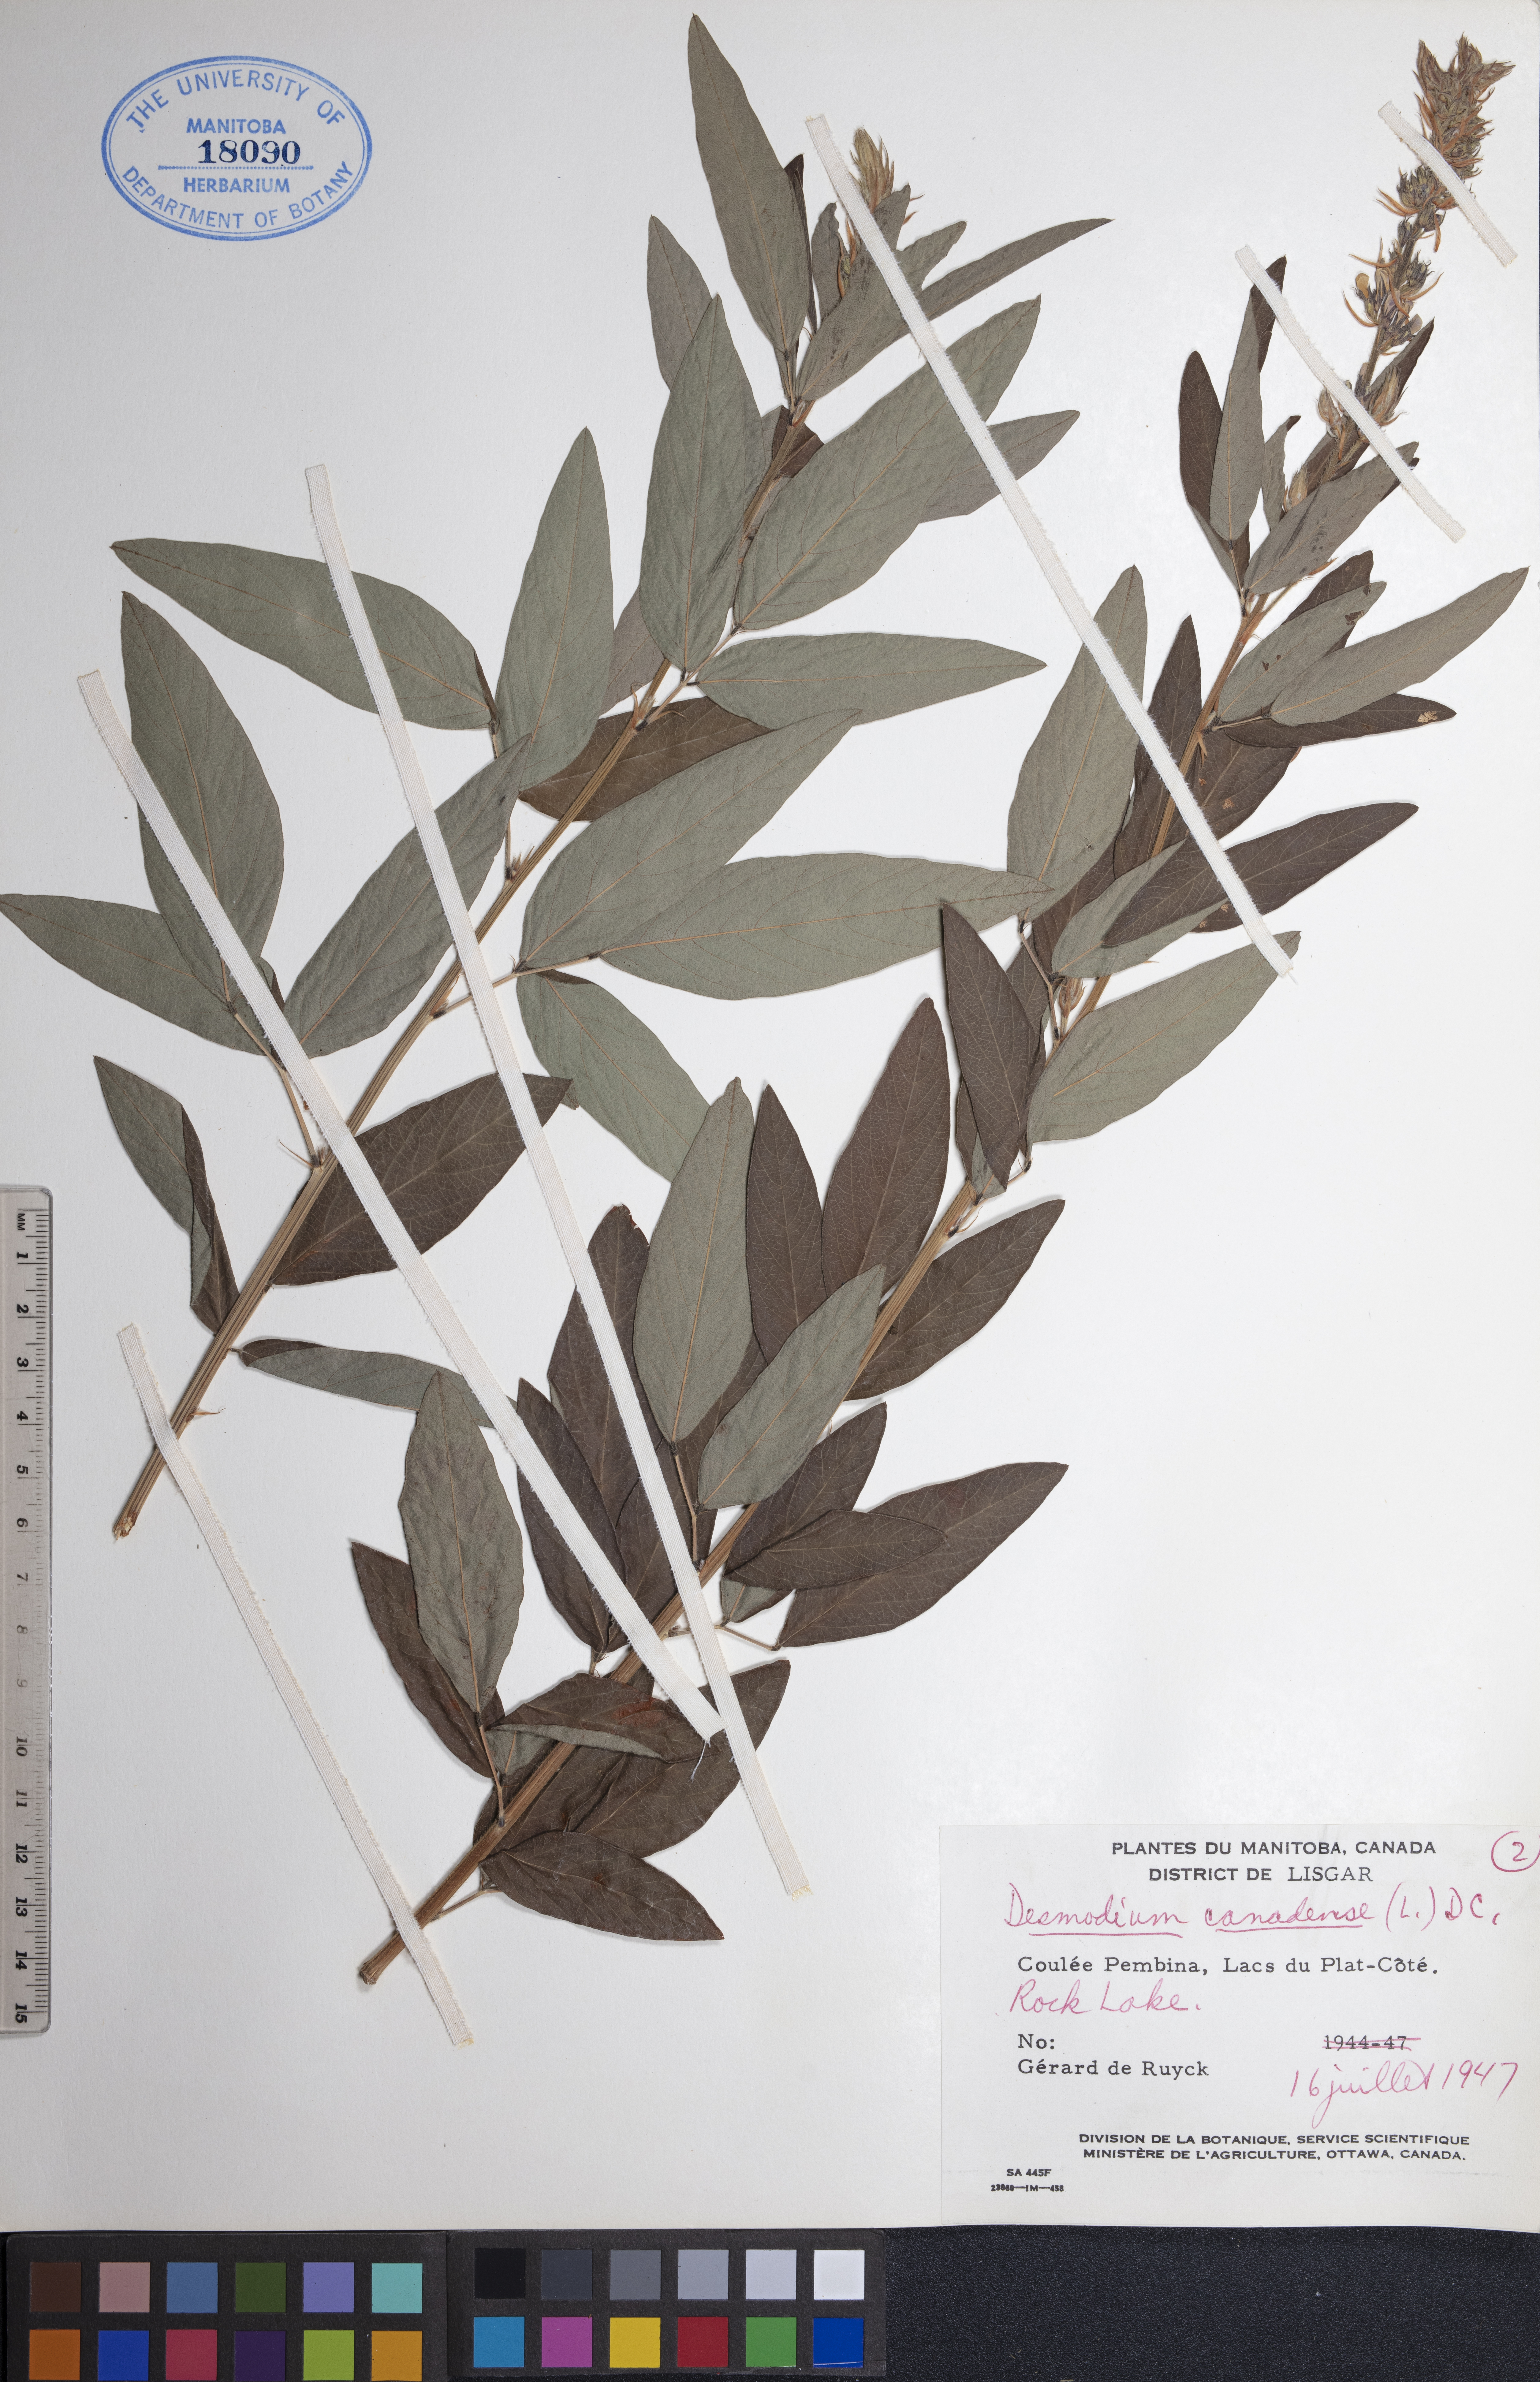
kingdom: Plantae
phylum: Tracheophyta
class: Magnoliopsida
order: Fabales
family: Fabaceae
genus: Desmodium
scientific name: Desmodium canadense
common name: Canada tick-trefoil
